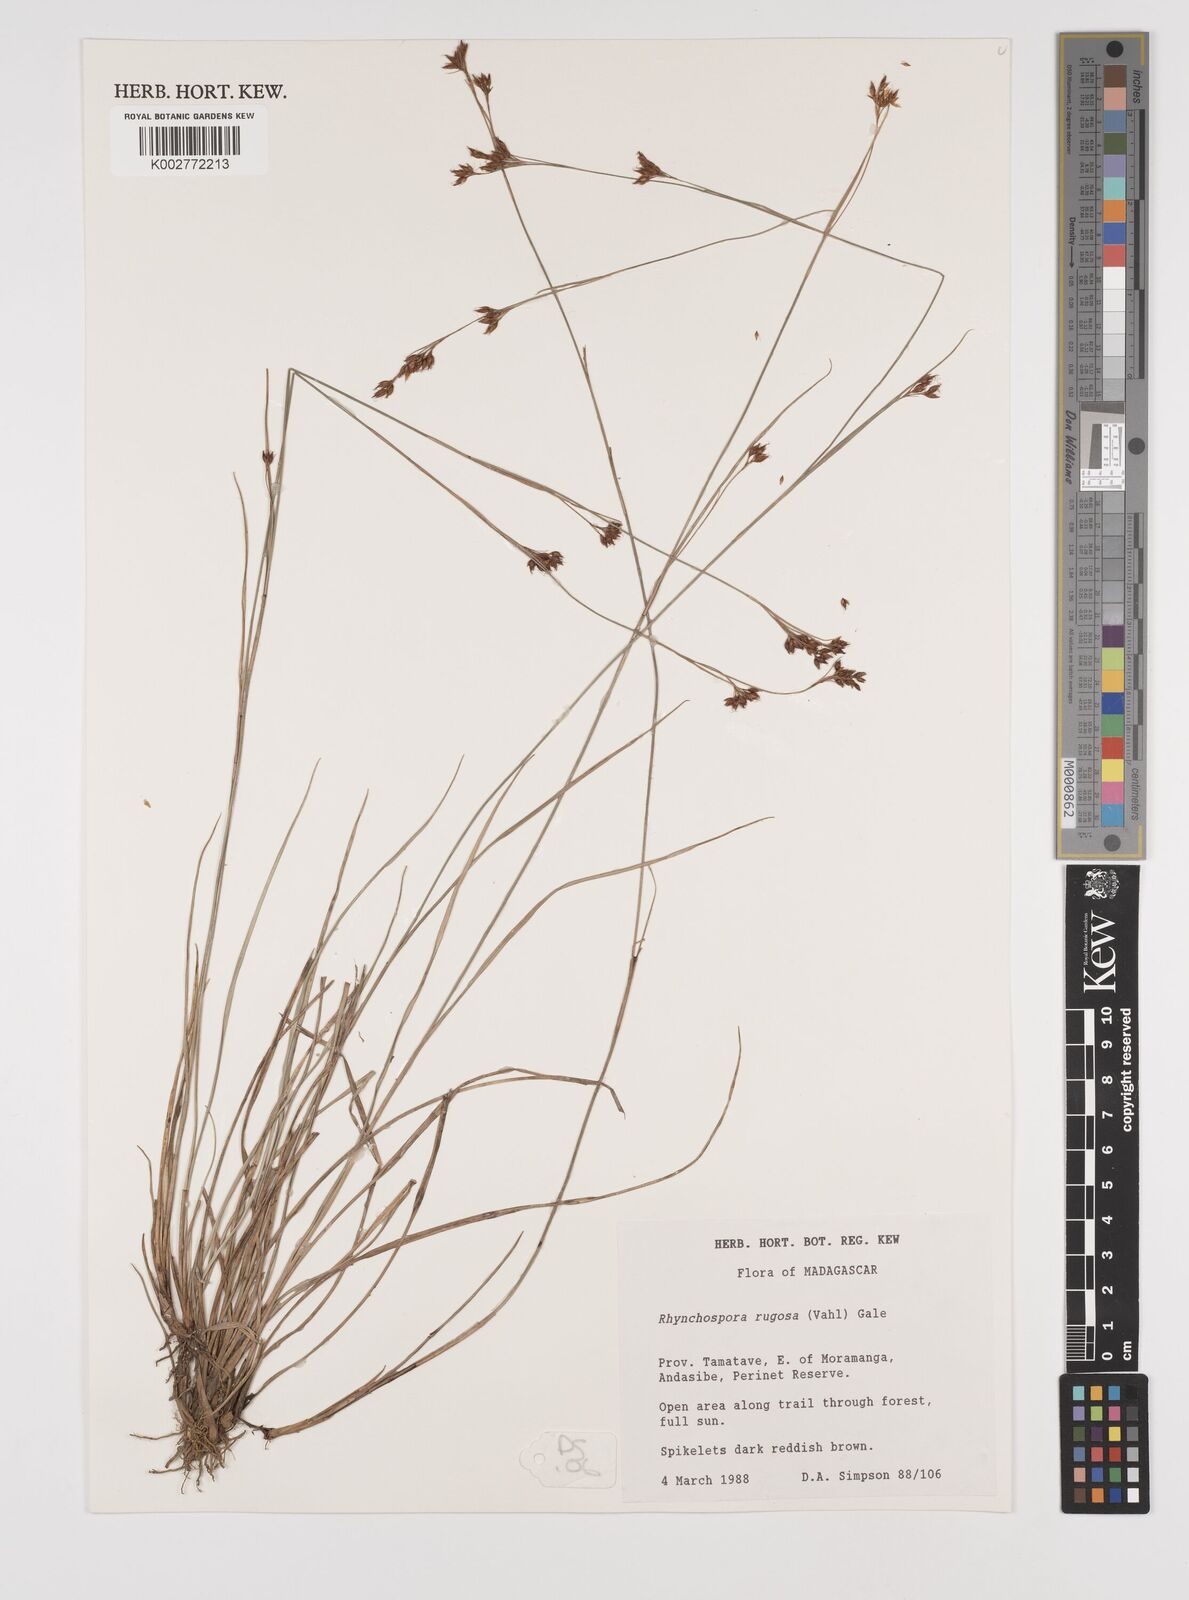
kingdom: Plantae
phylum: Tracheophyta
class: Liliopsida
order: Poales
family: Cyperaceae
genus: Rhynchospora
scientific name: Rhynchospora rugosa
